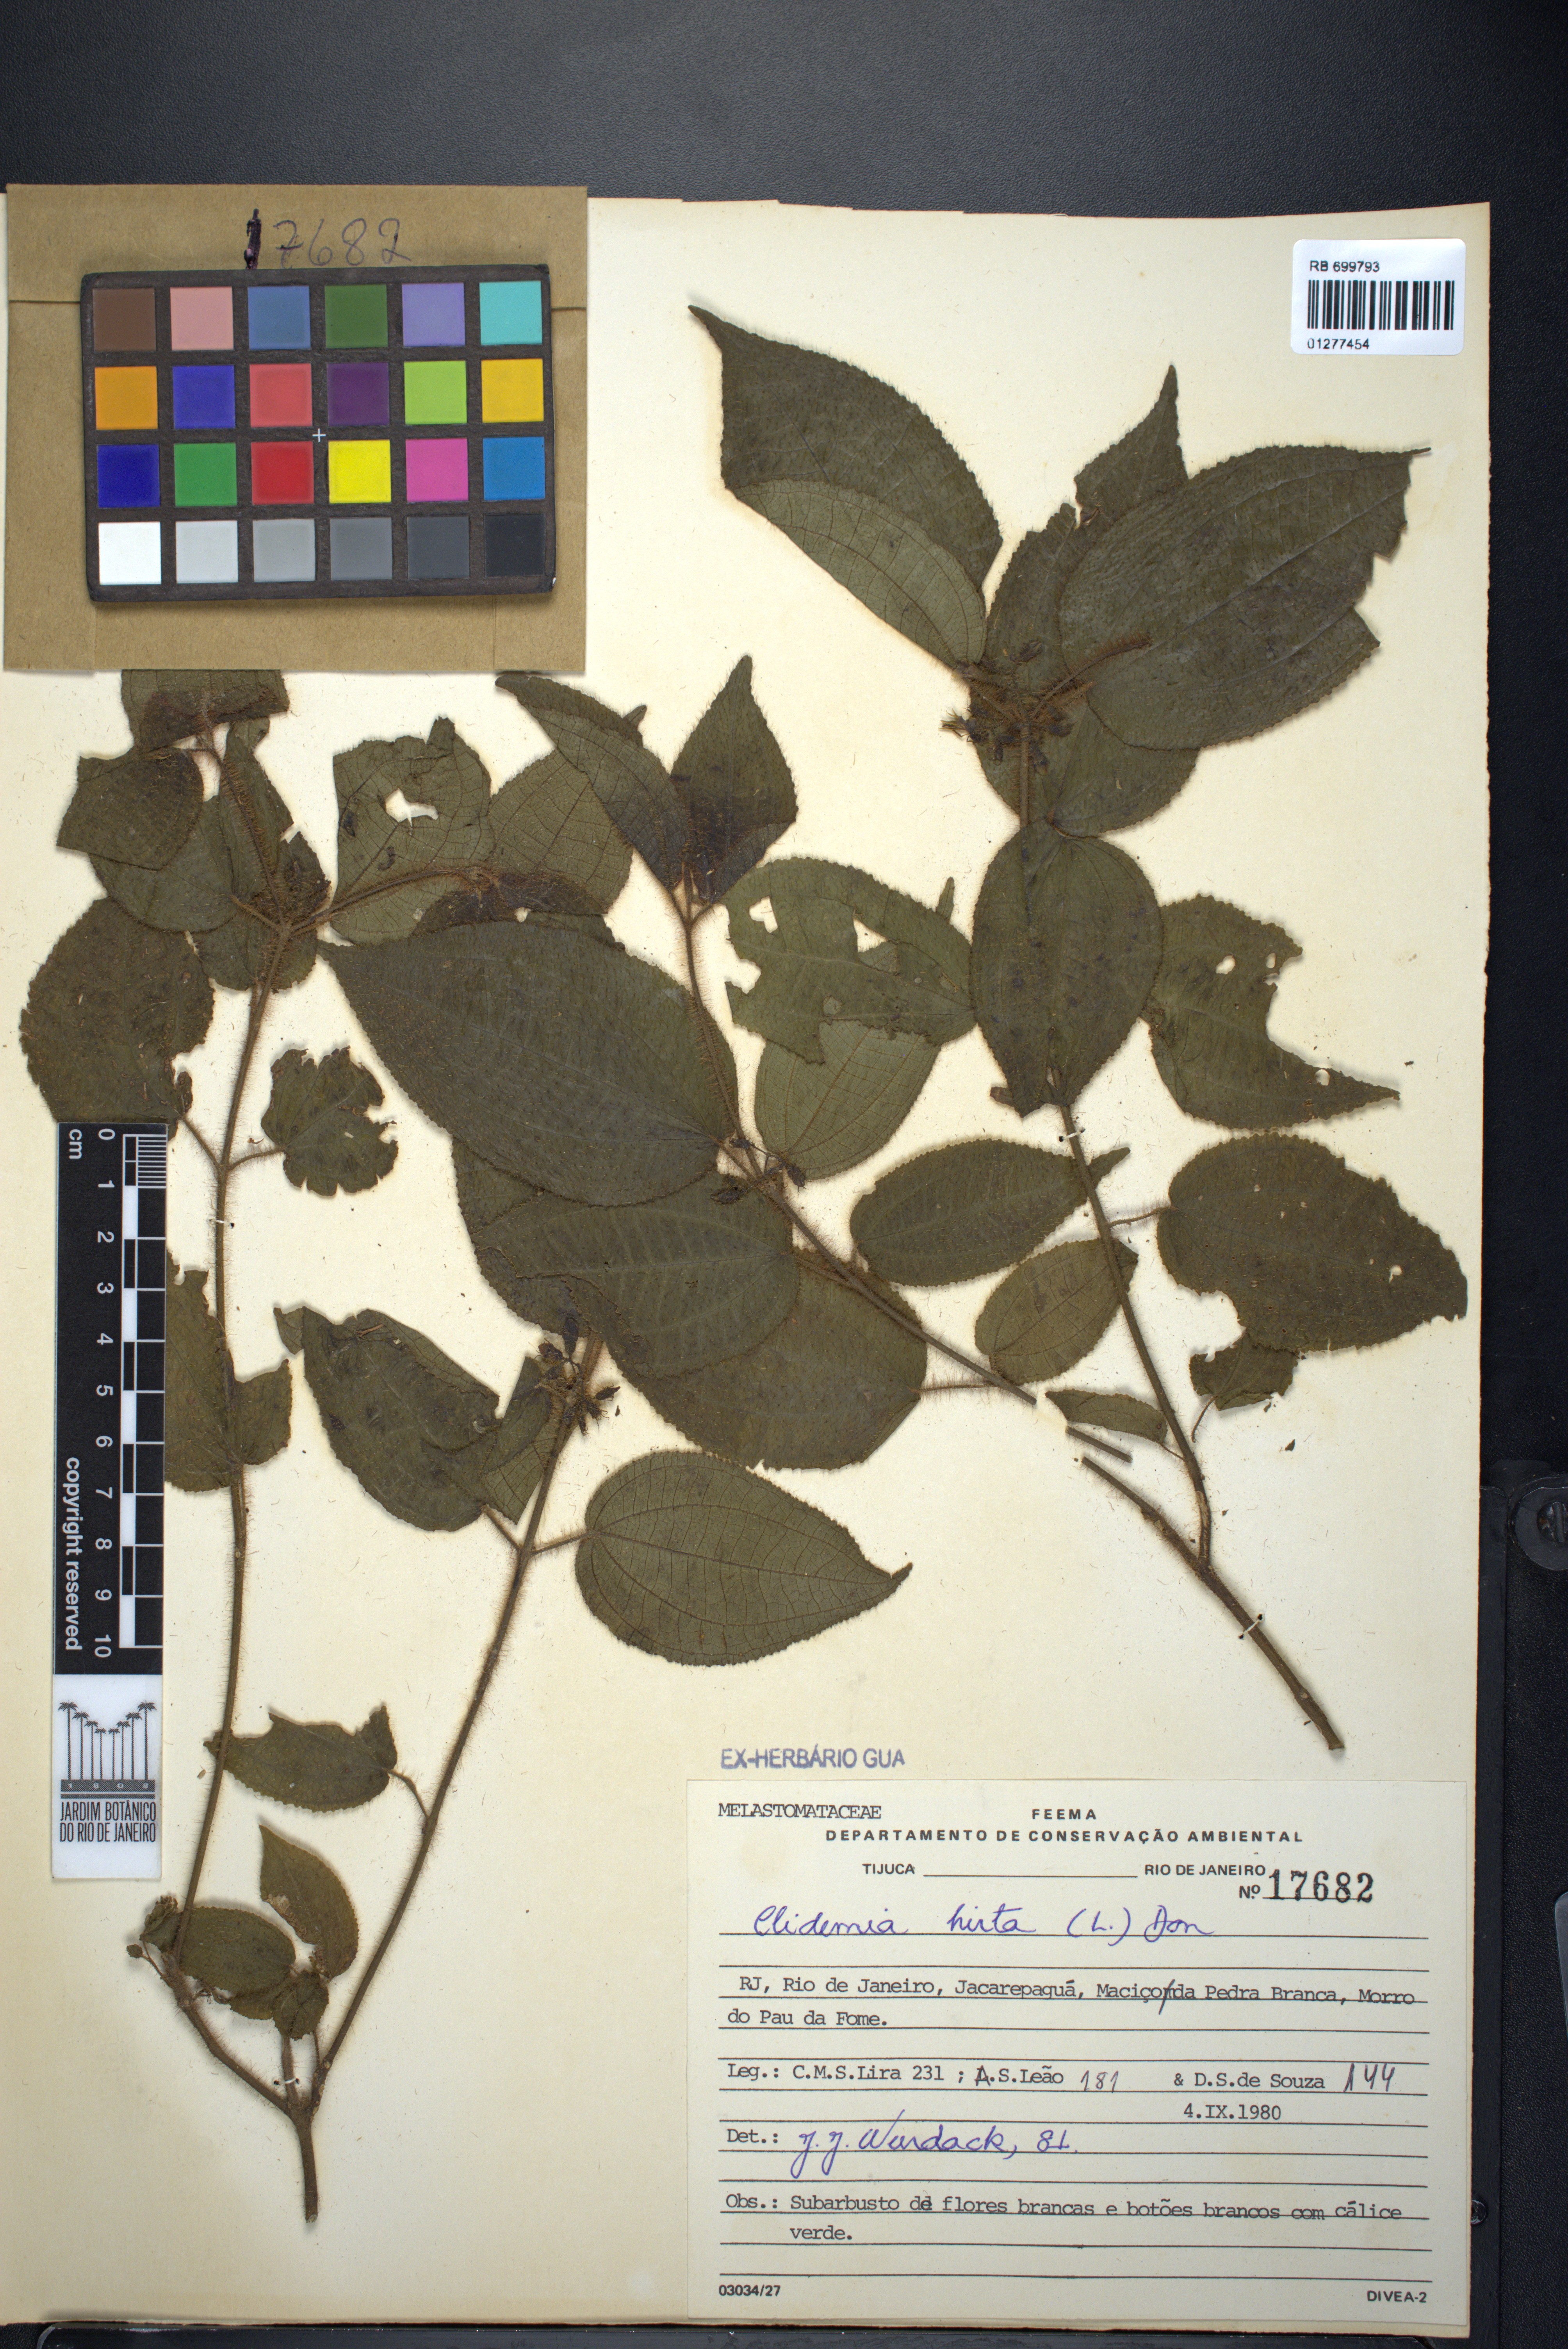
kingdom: Plantae
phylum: Tracheophyta
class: Magnoliopsida
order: Myrtales
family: Melastomataceae
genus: Miconia
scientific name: Miconia crenata
